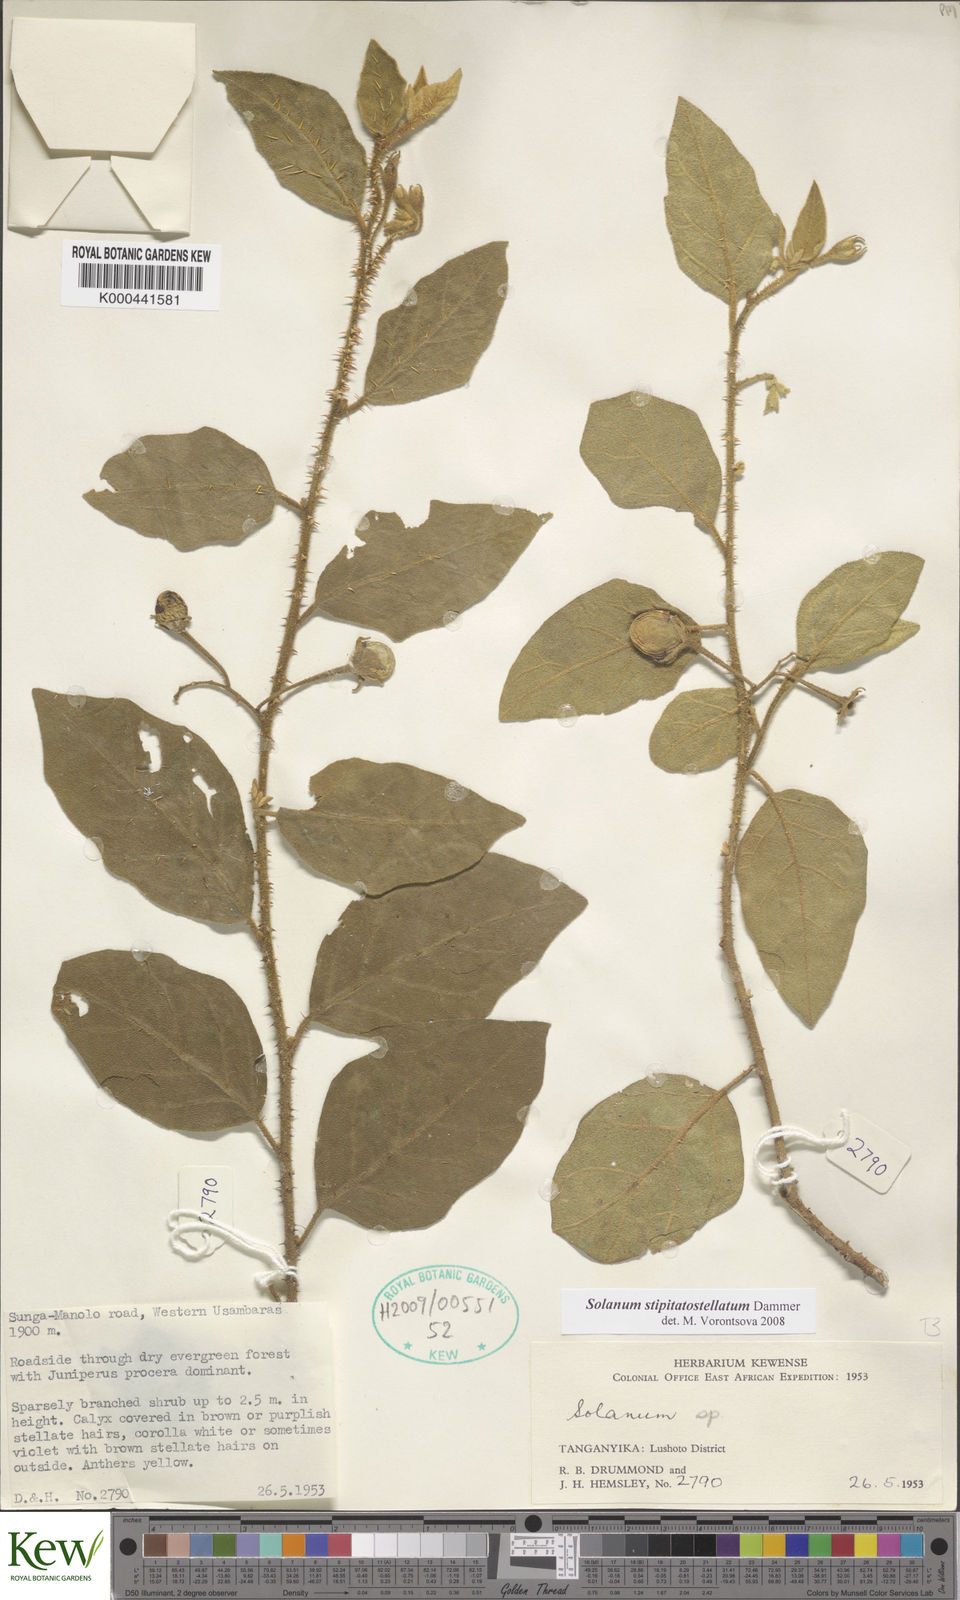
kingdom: Plantae
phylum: Tracheophyta
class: Magnoliopsida
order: Solanales
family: Solanaceae
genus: Solanum
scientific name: Solanum campylacanthum
